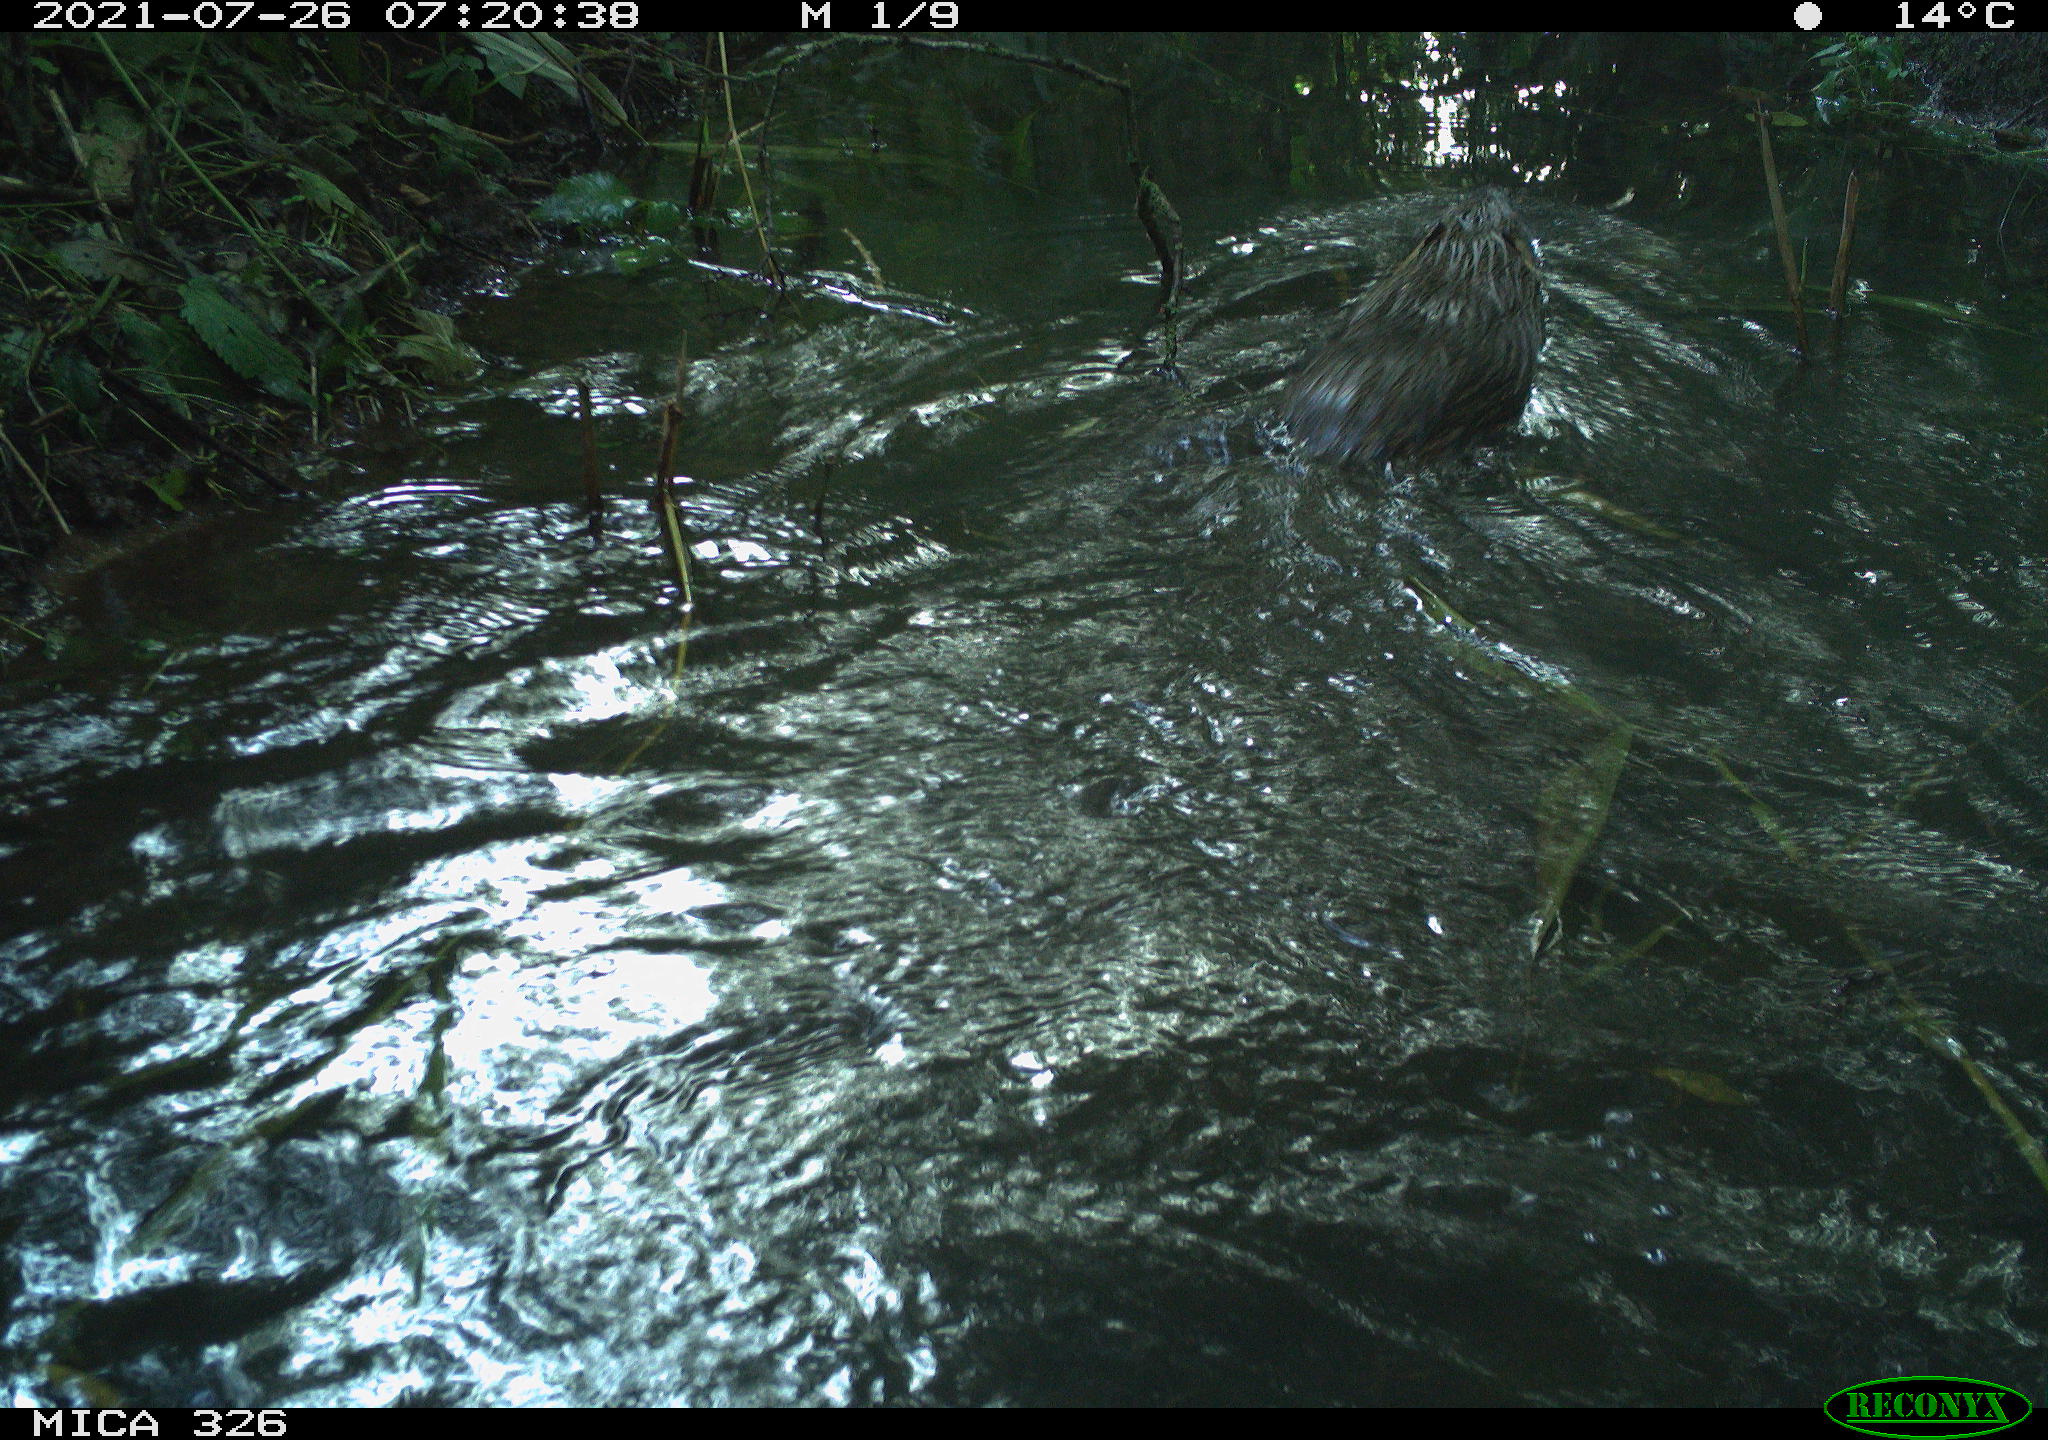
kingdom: Animalia
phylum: Chordata
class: Mammalia
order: Rodentia
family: Cricetidae
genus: Ondatra
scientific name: Ondatra zibethicus
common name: Muskrat
